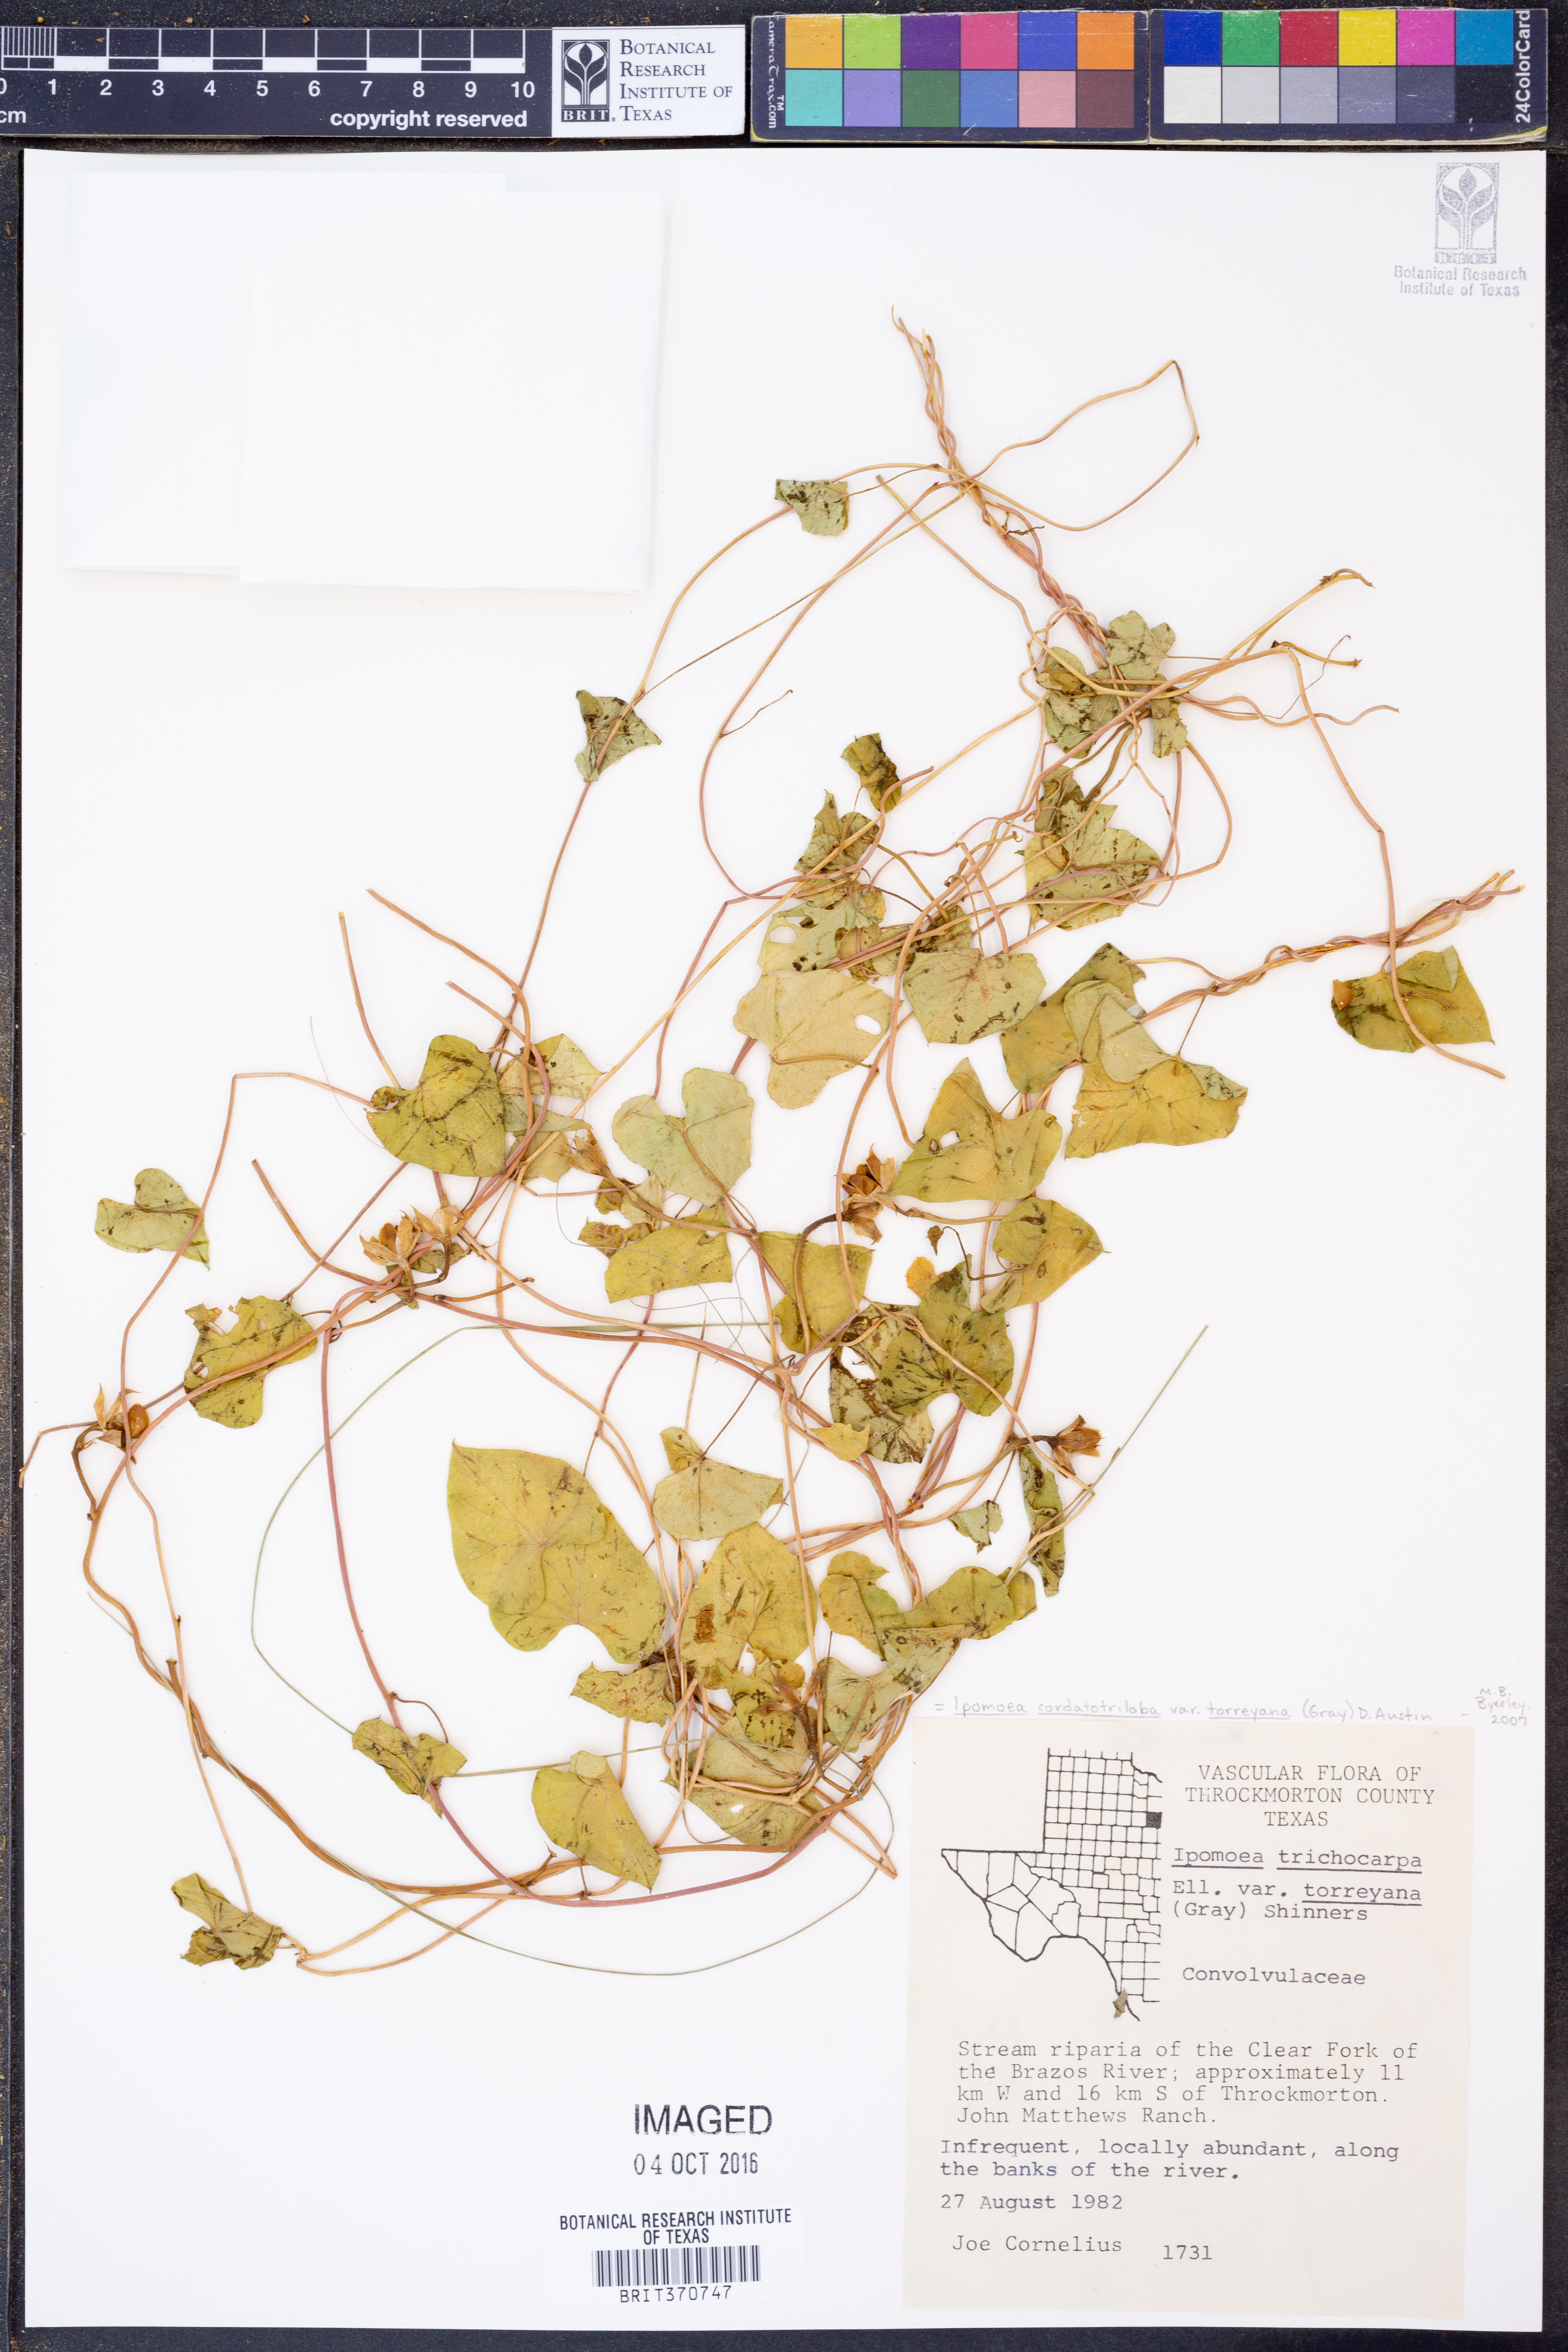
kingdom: Plantae
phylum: Tracheophyta
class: Magnoliopsida
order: Solanales
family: Convolvulaceae
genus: Ipomoea
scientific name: Ipomoea cordatotriloba
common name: Cotton morning glory
